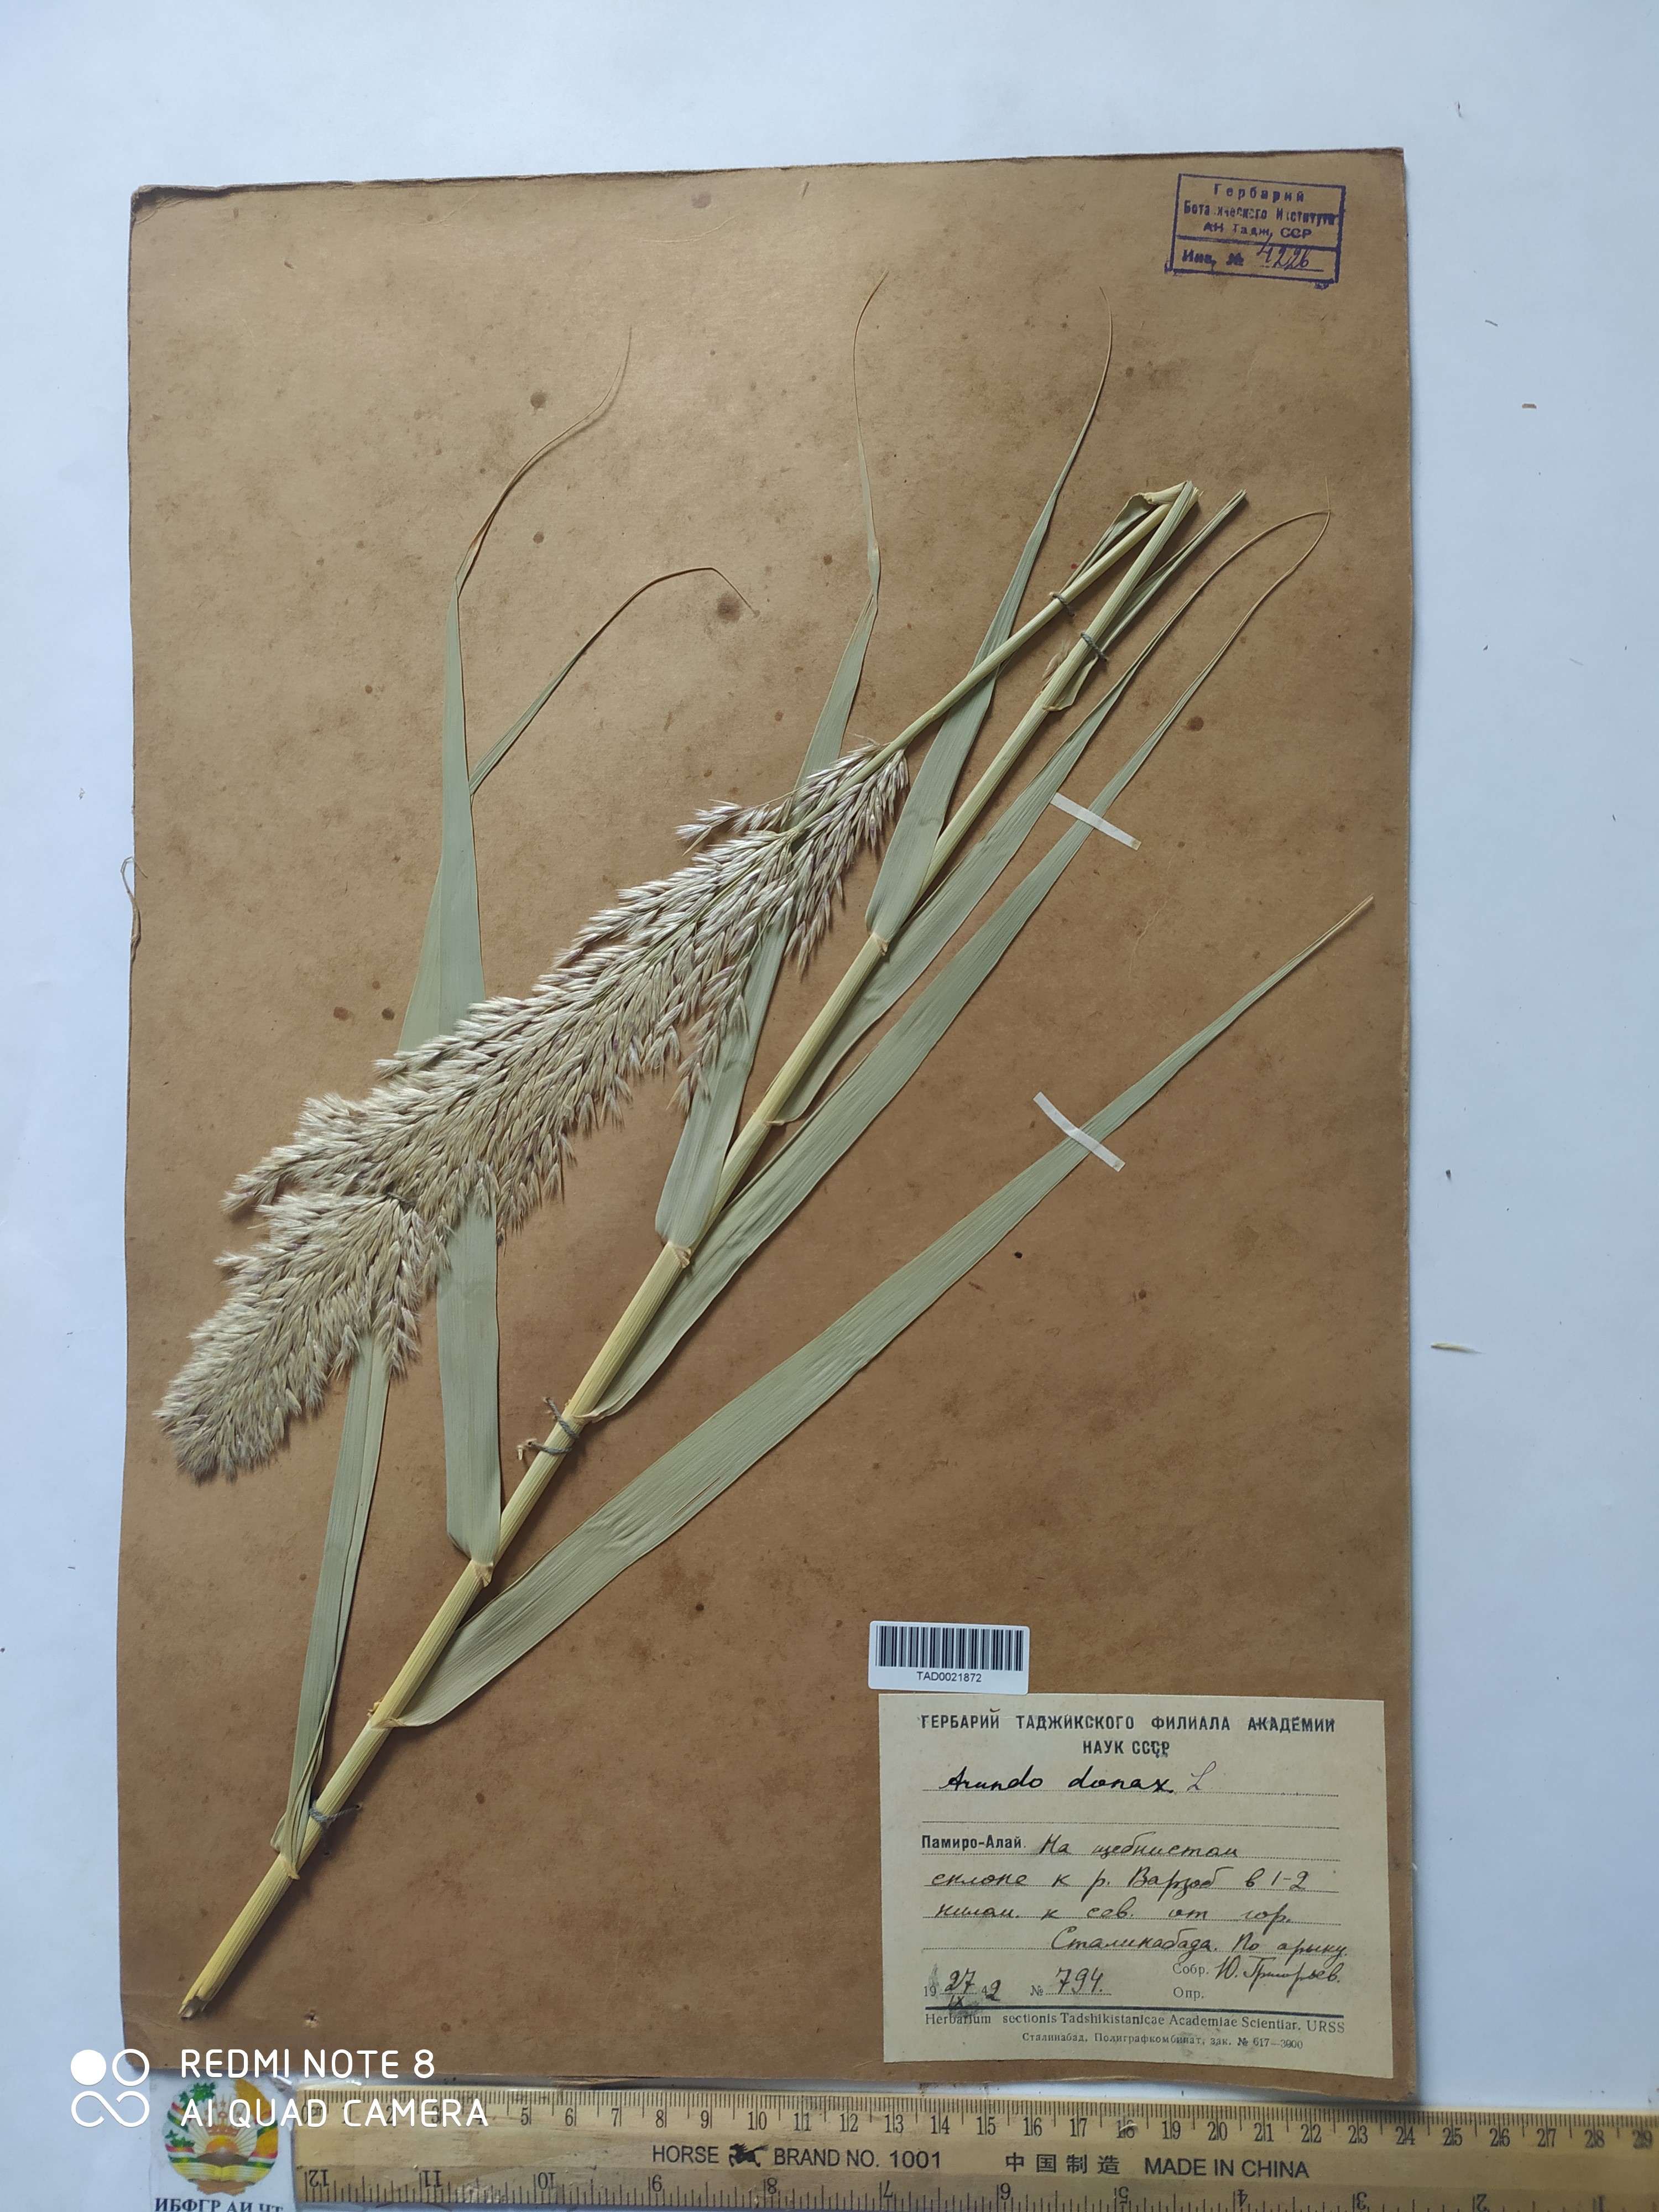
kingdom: Plantae
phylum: Tracheophyta
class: Liliopsida
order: Poales
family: Poaceae
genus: Arundo
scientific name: Arundo donax
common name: Giant reed
